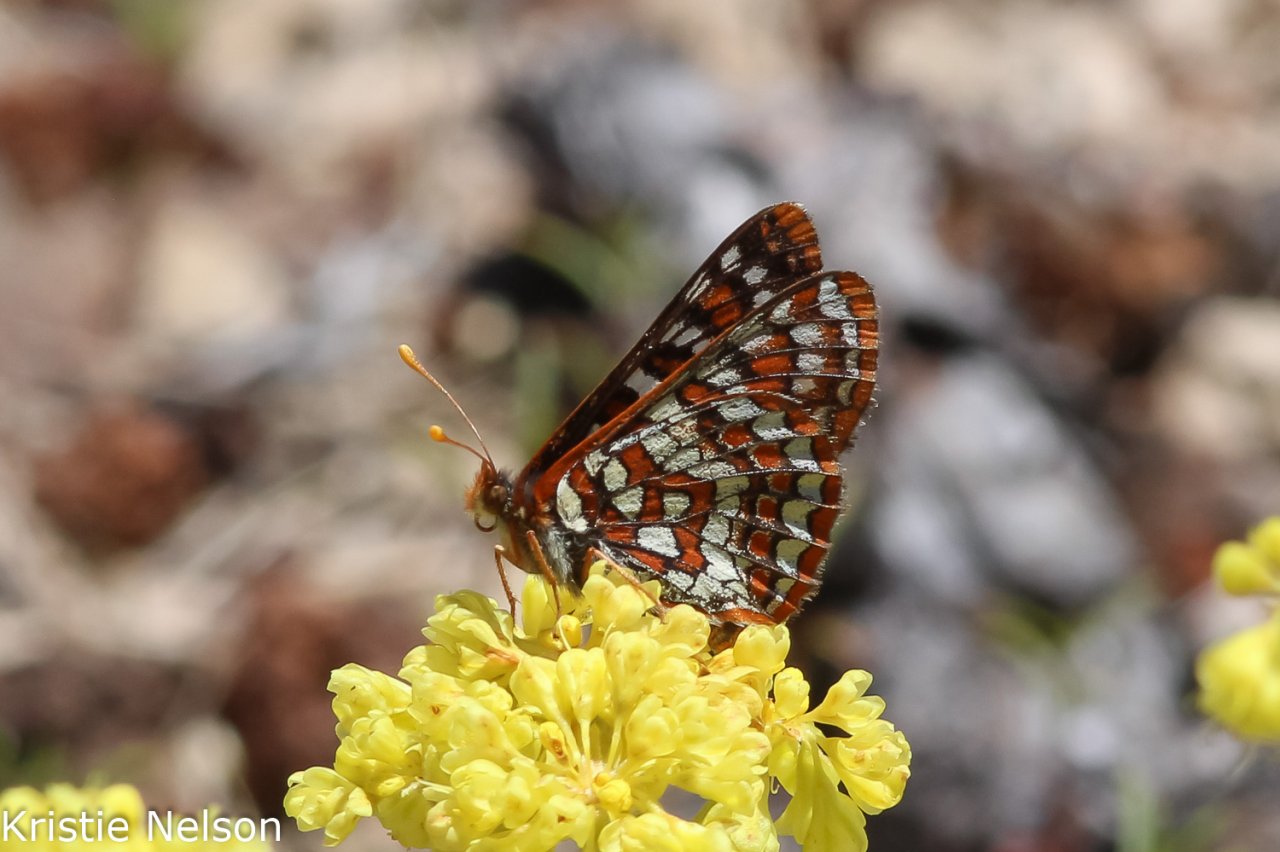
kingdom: Animalia
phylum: Arthropoda
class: Insecta
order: Lepidoptera
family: Nymphalidae
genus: Occidryas
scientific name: Occidryas editha
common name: Edith's Checkerspot
